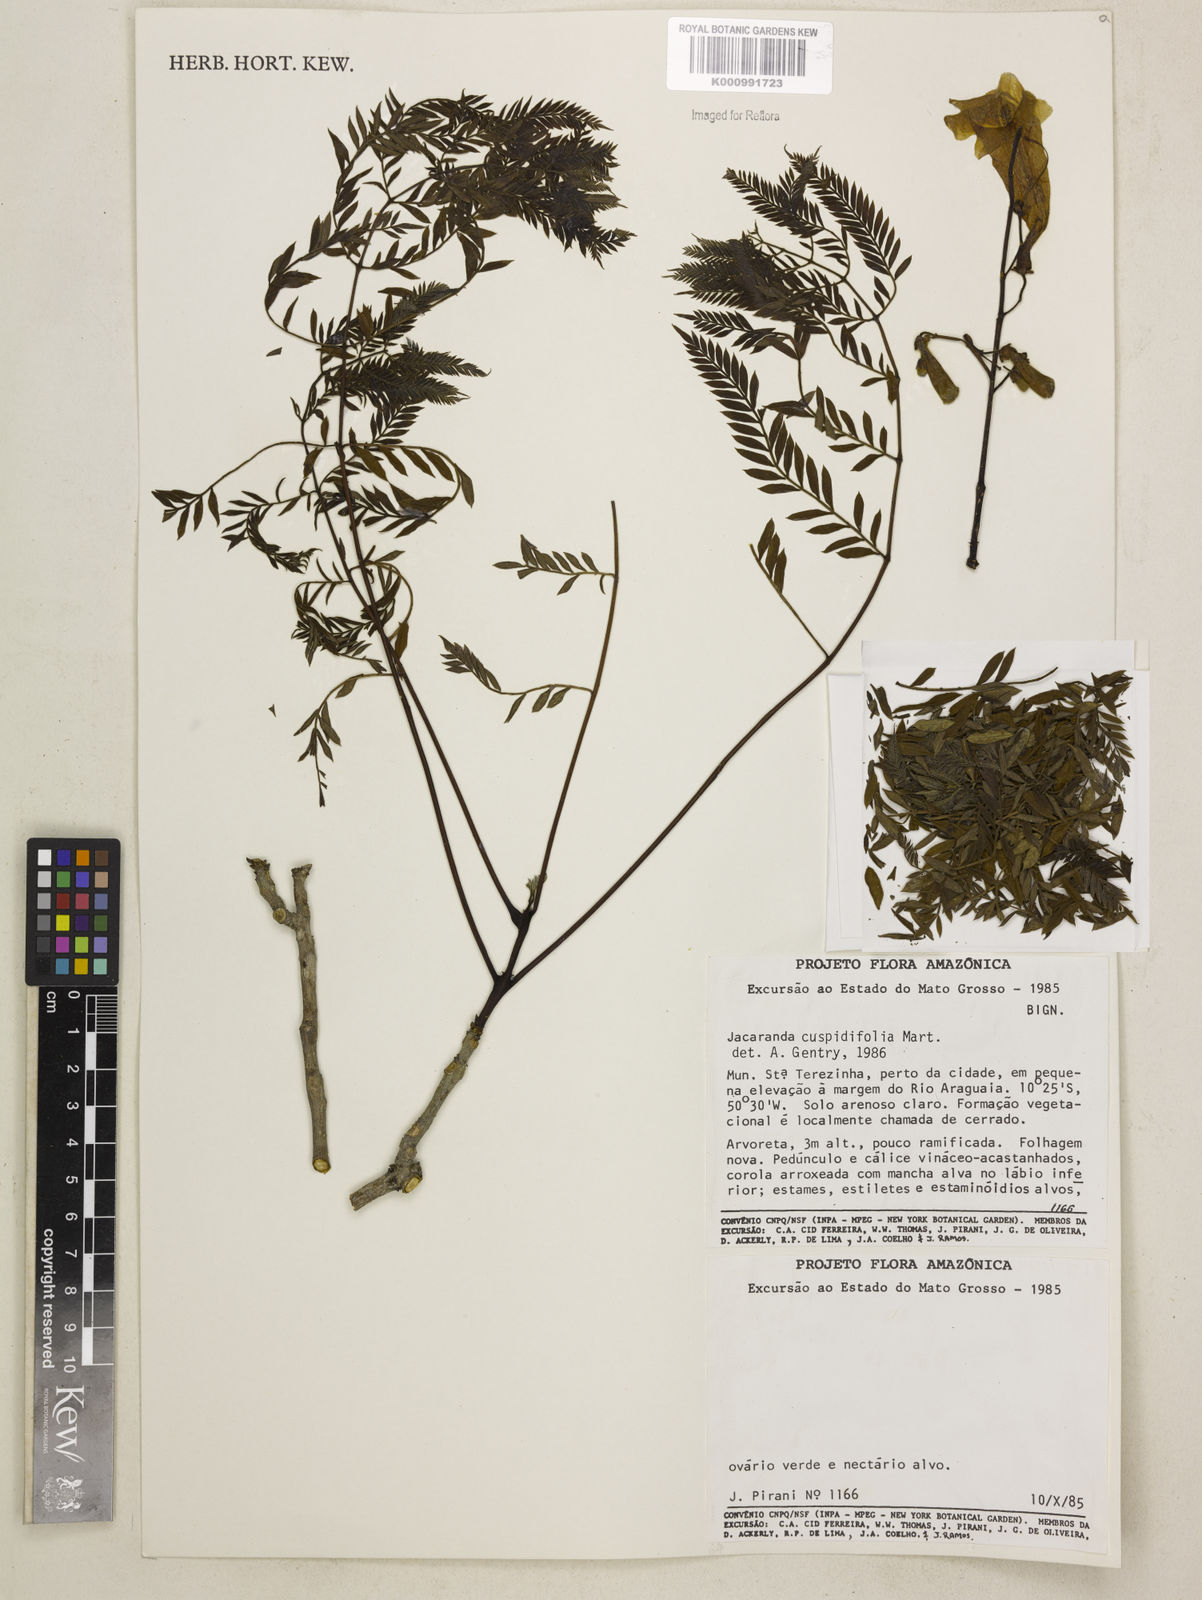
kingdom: Plantae
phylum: Tracheophyta
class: Magnoliopsida
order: Lamiales
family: Bignoniaceae
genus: Jacaranda
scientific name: Jacaranda cuspidifolia
